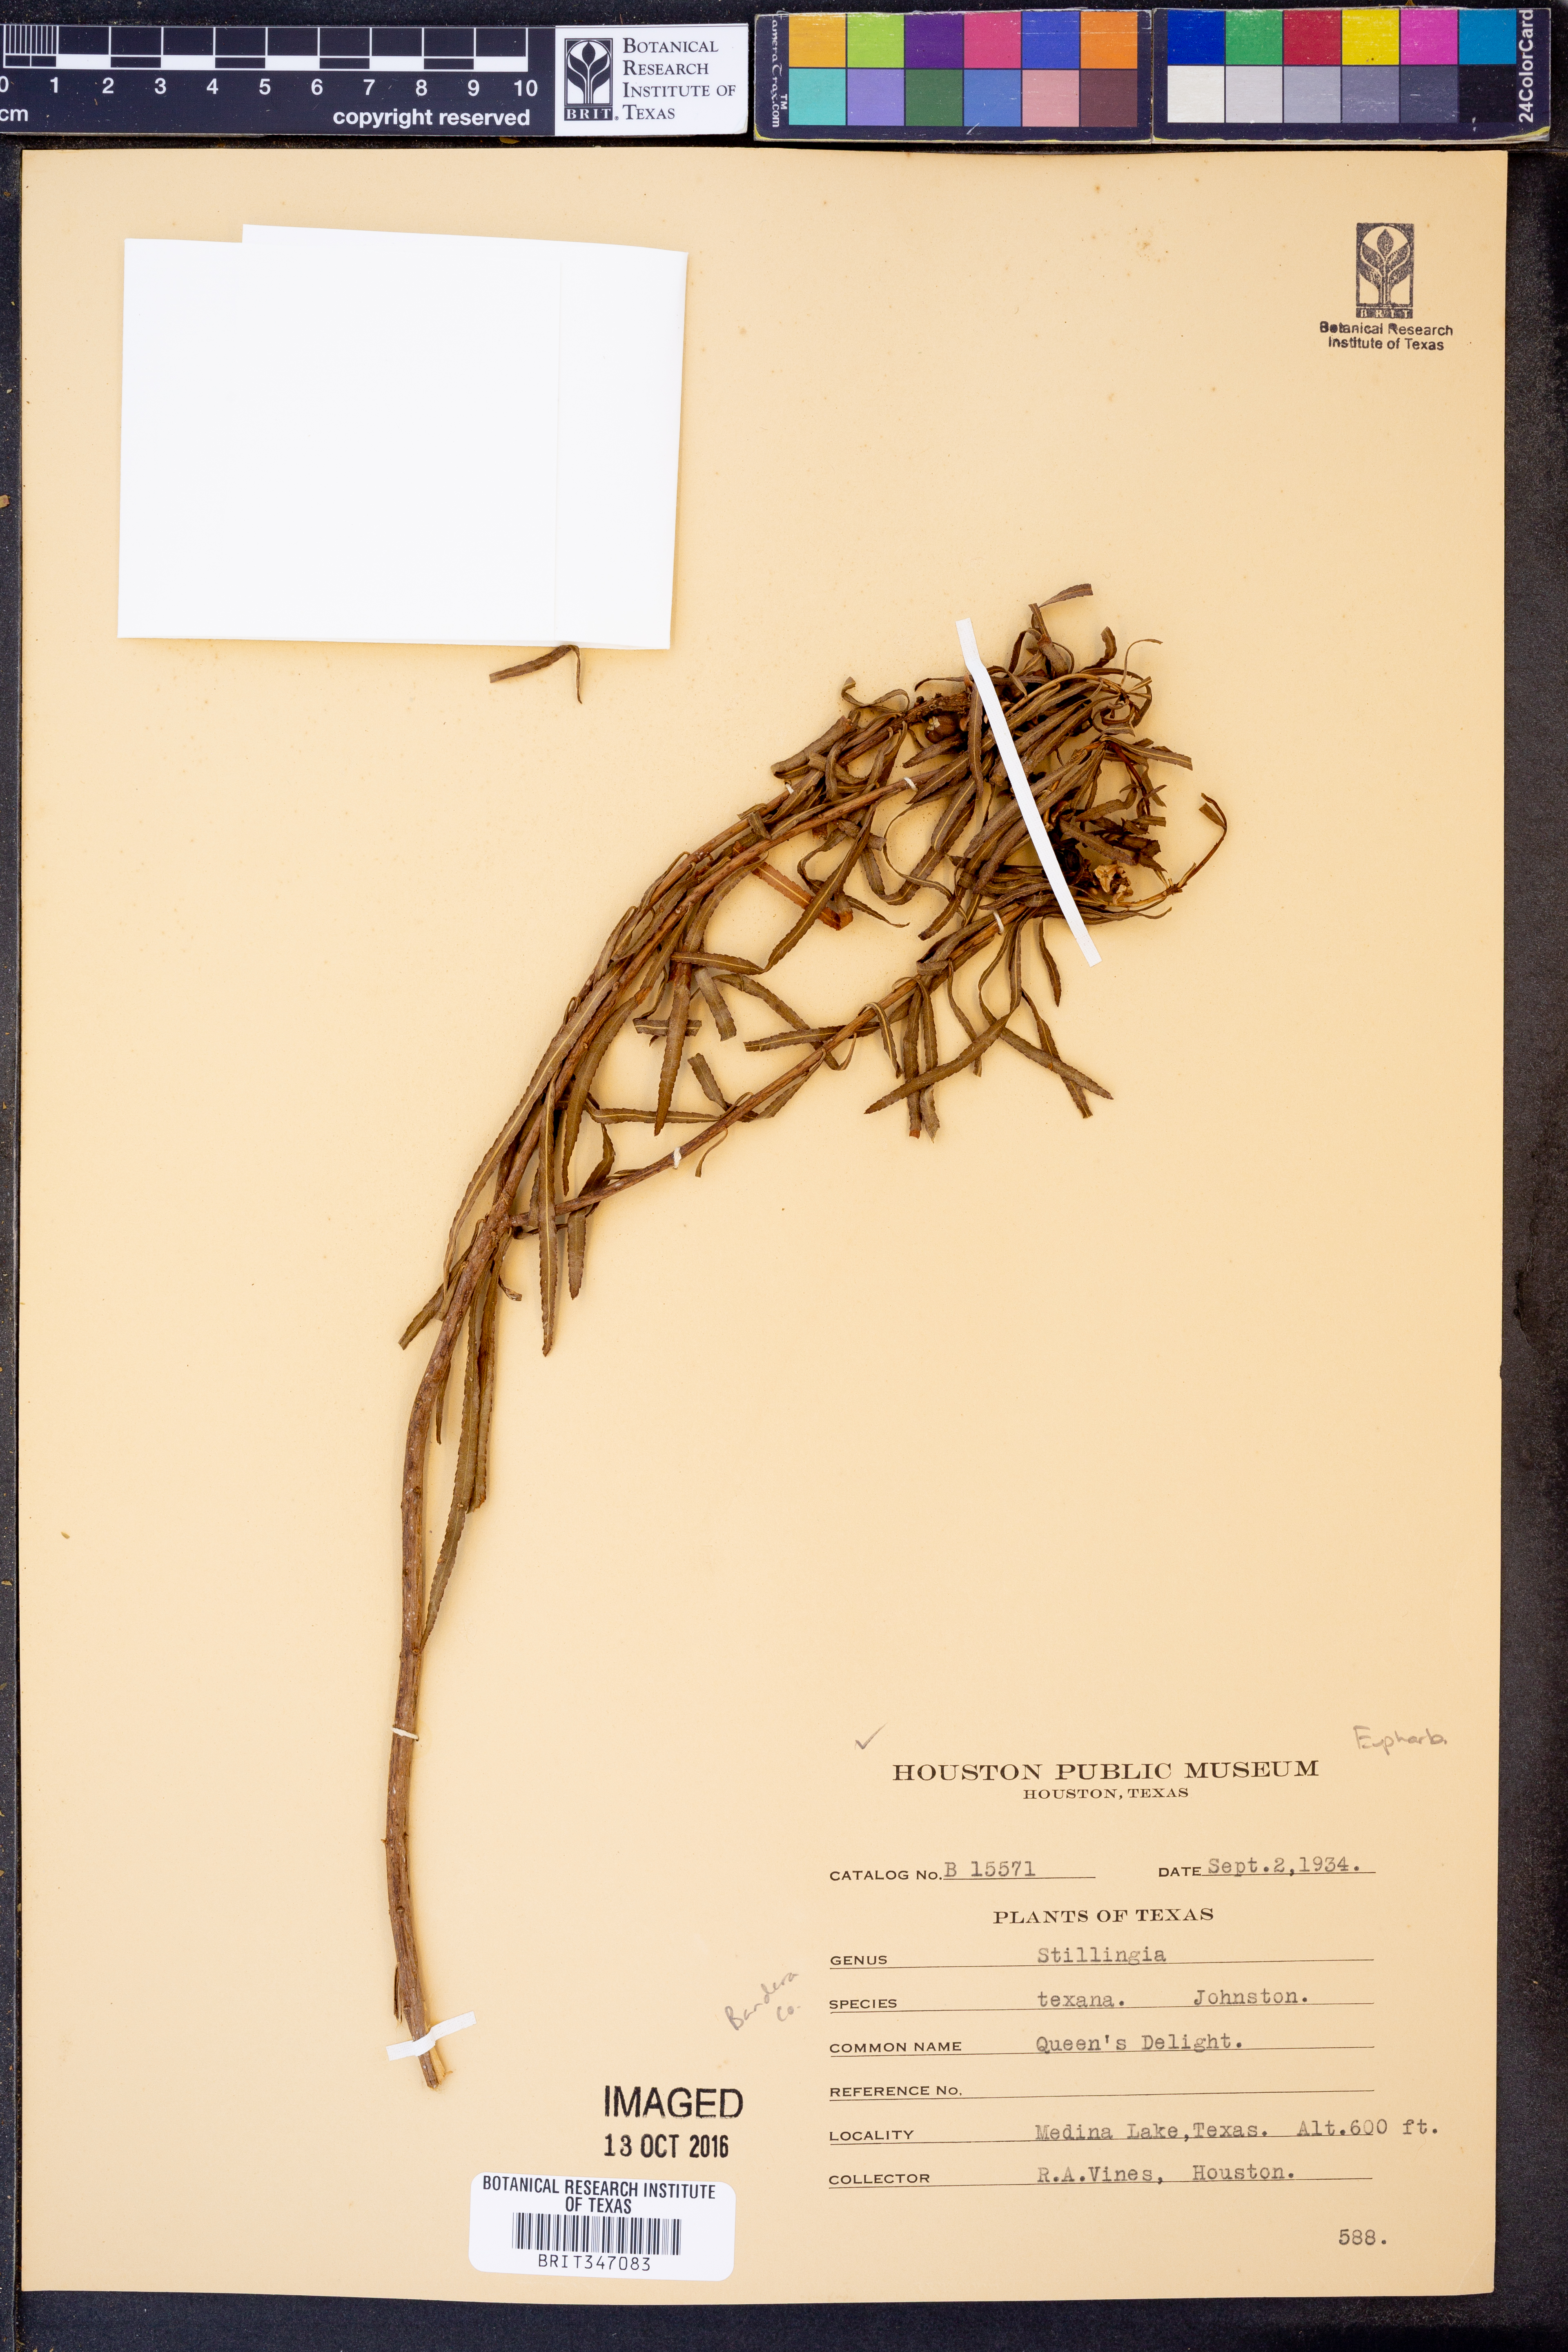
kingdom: Plantae
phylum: Tracheophyta
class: Magnoliopsida
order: Malpighiales
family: Euphorbiaceae
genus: Stillingia
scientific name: Stillingia texana
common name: Texas stillingia
